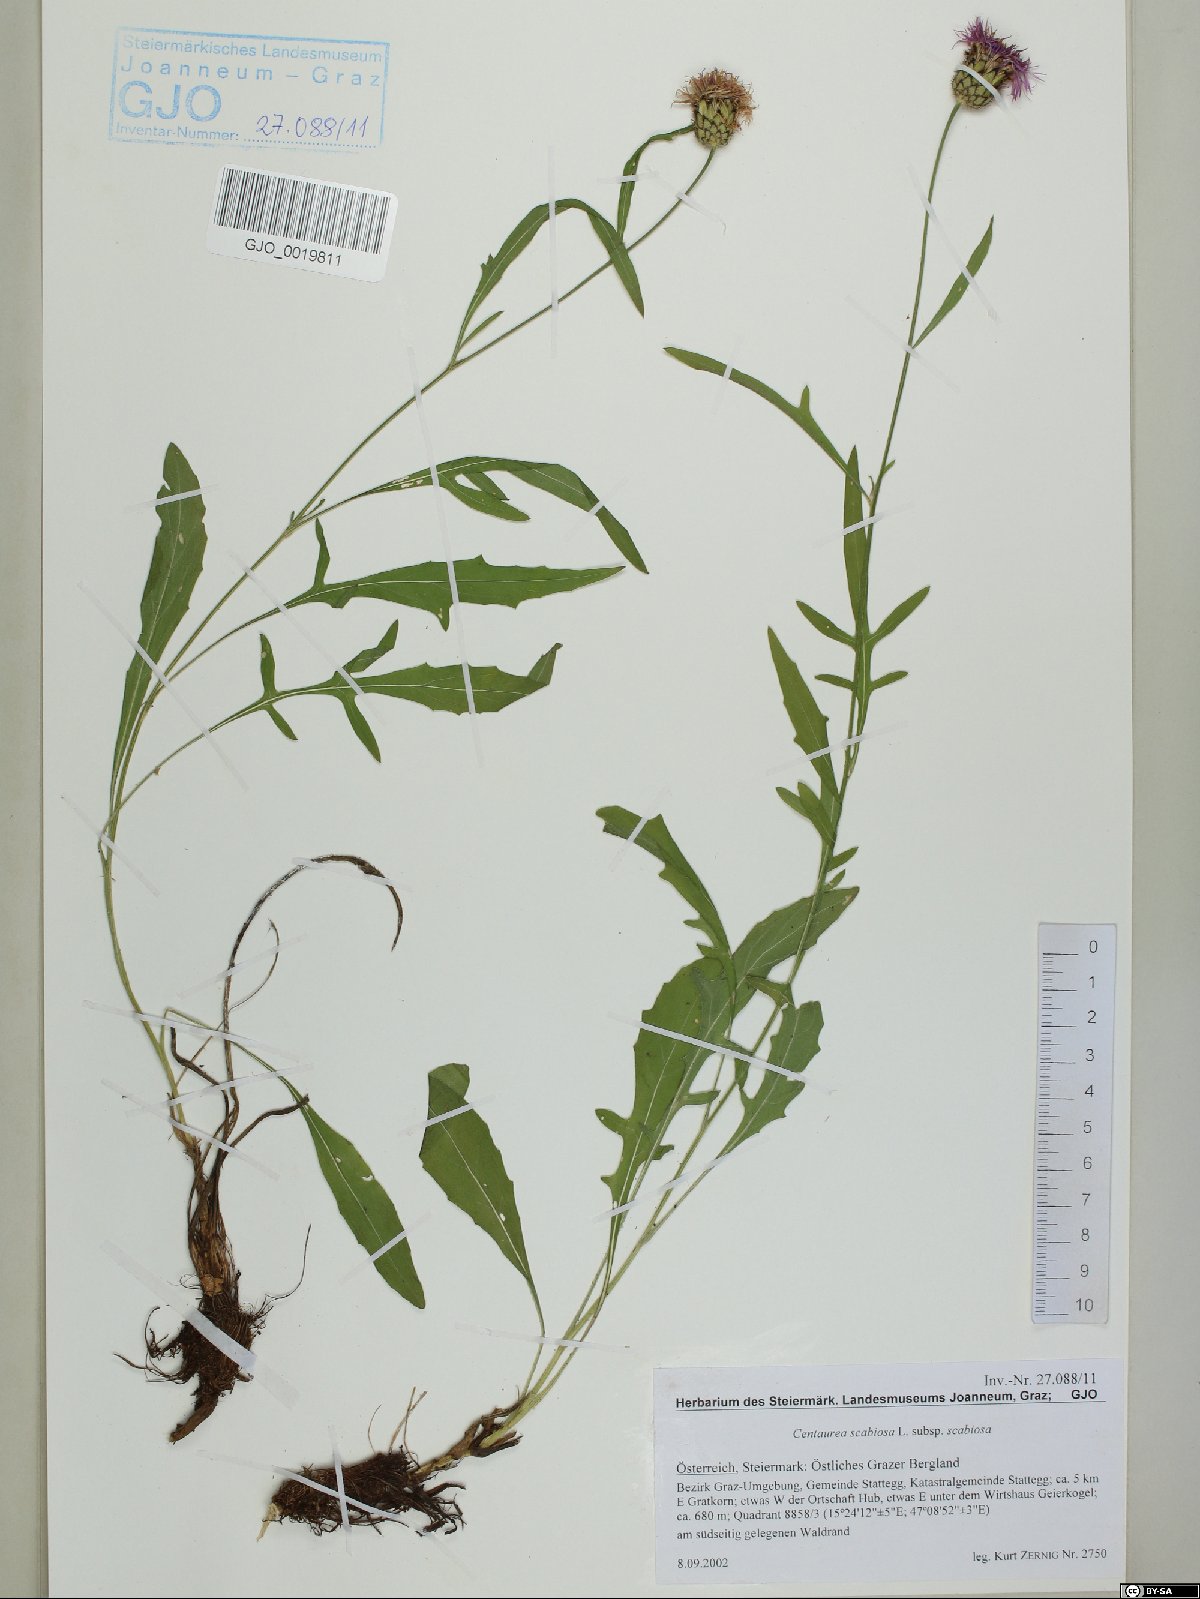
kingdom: Plantae
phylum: Tracheophyta
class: Magnoliopsida
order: Asterales
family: Asteraceae
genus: Centaurea
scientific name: Centaurea scabiosa
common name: Greater knapweed
